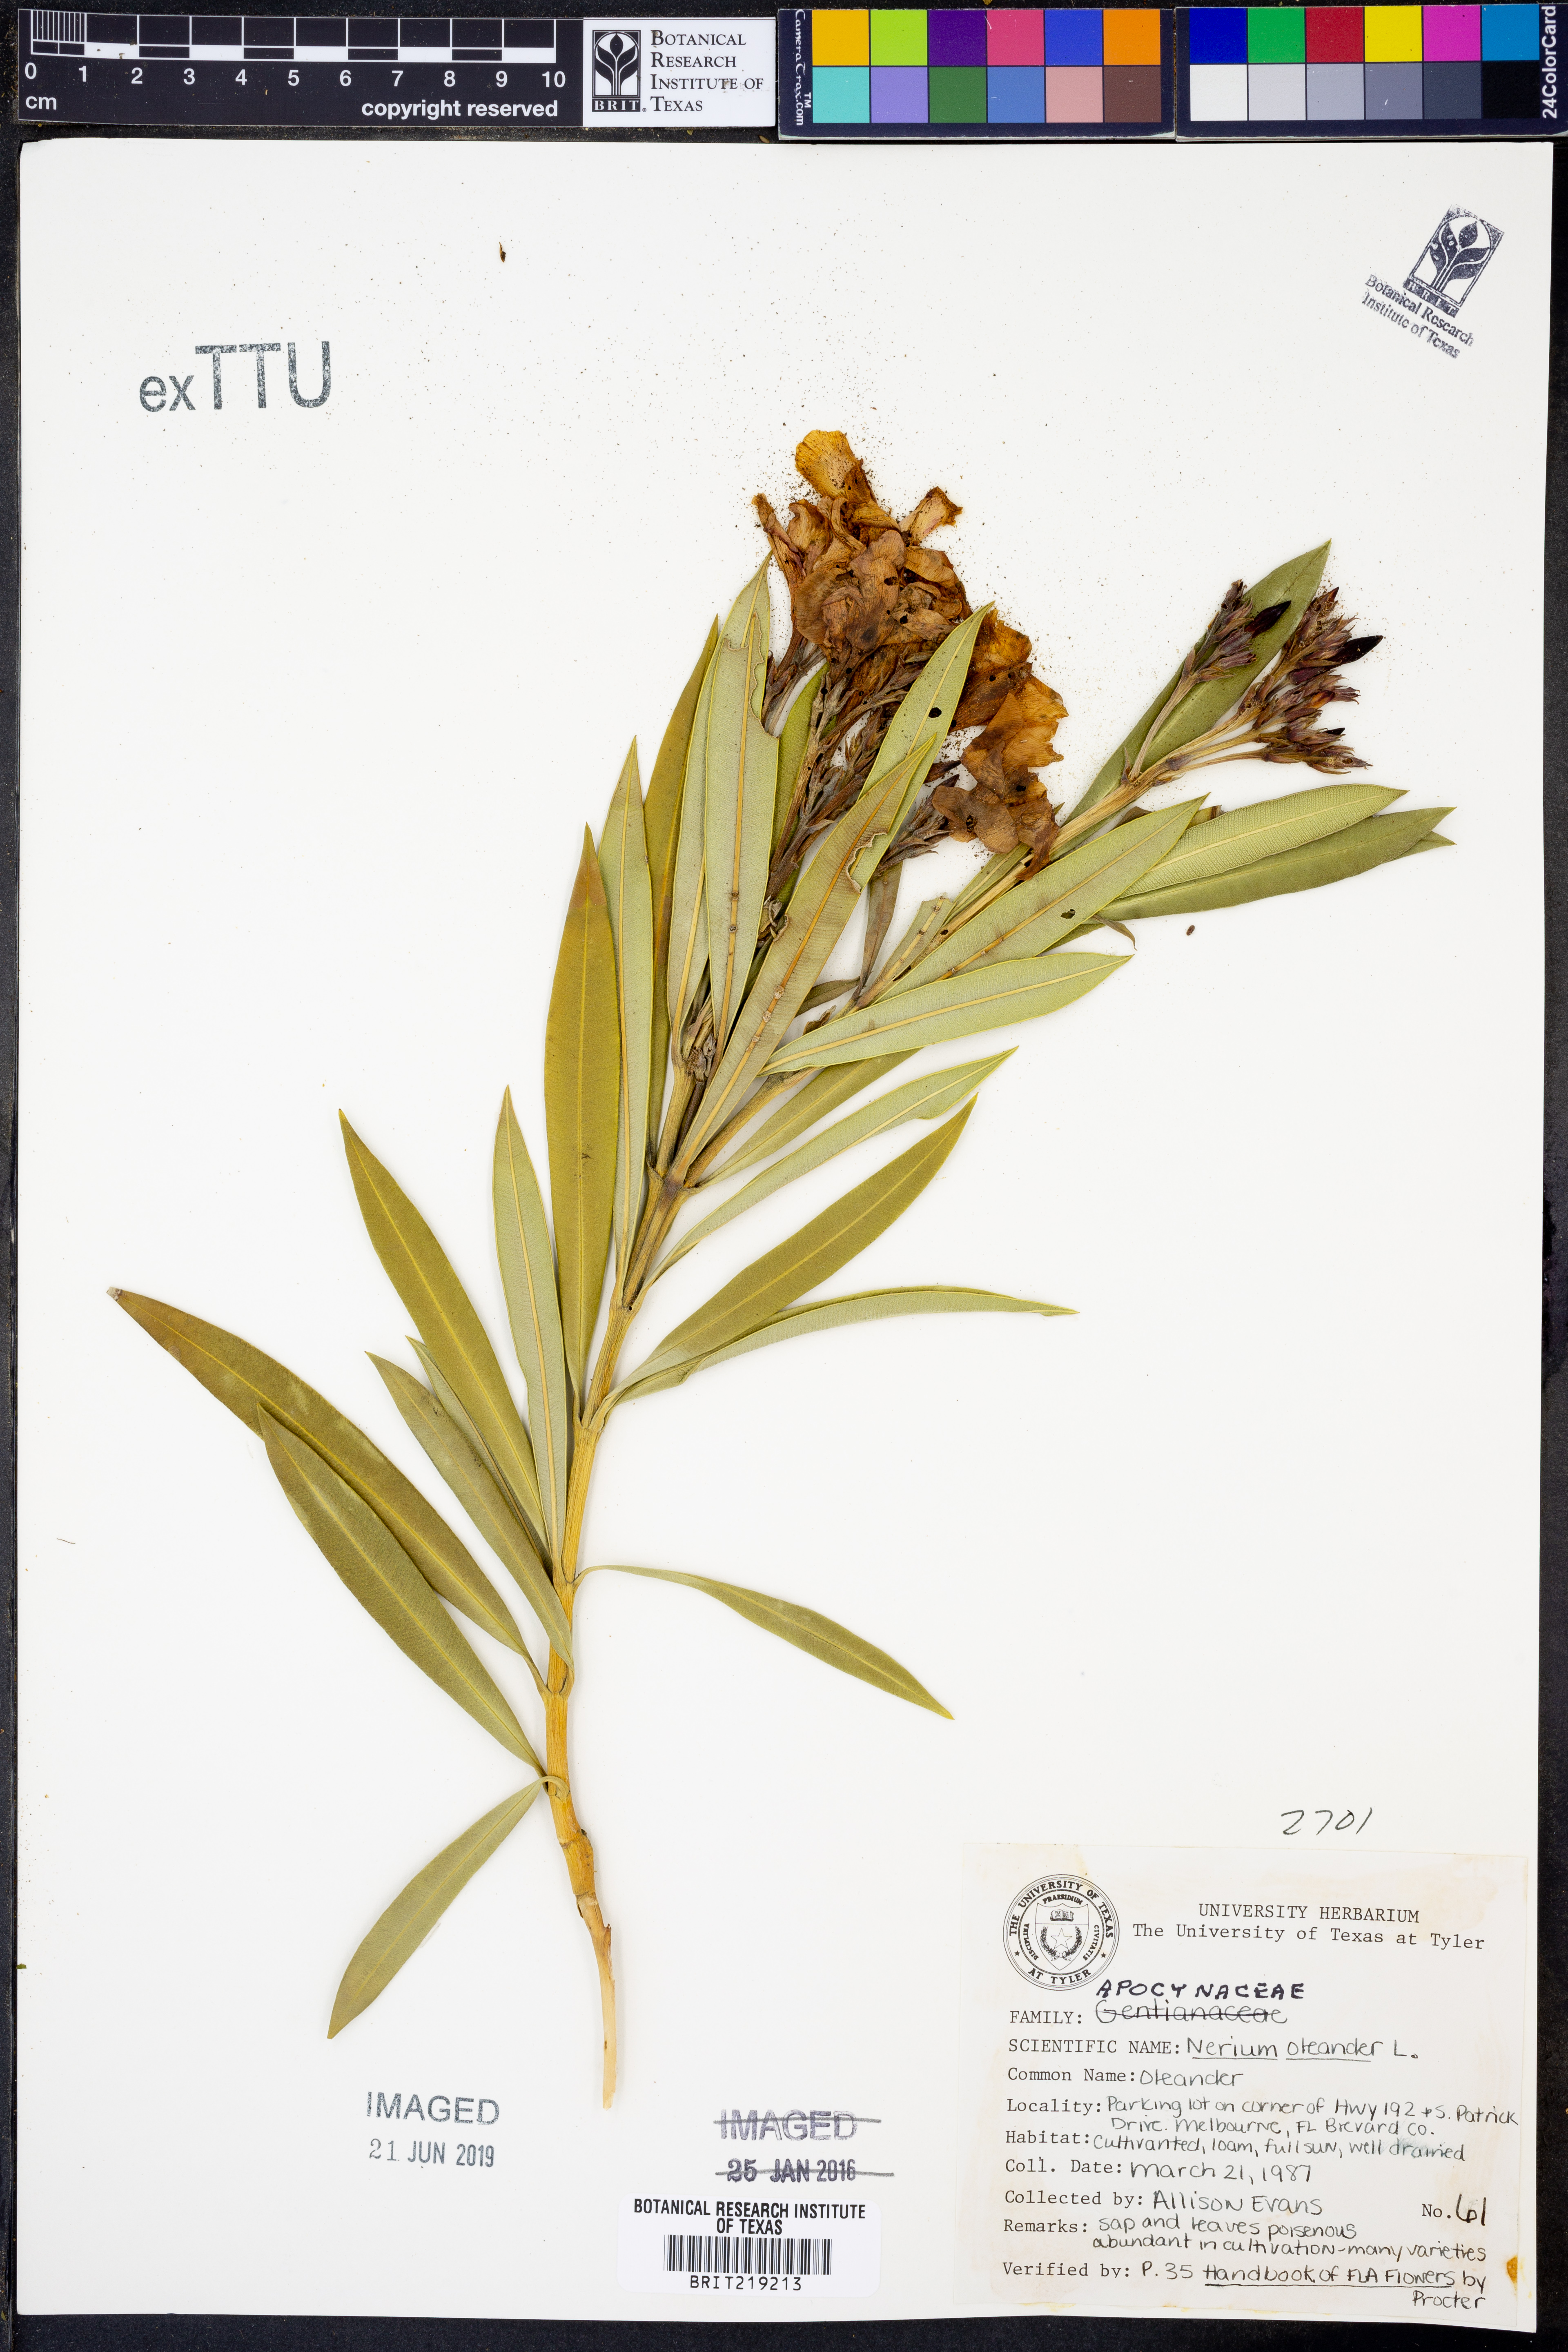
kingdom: Plantae
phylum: Tracheophyta
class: Magnoliopsida
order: Gentianales
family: Apocynaceae
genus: Nerium
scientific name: Nerium oleander
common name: Oleander
